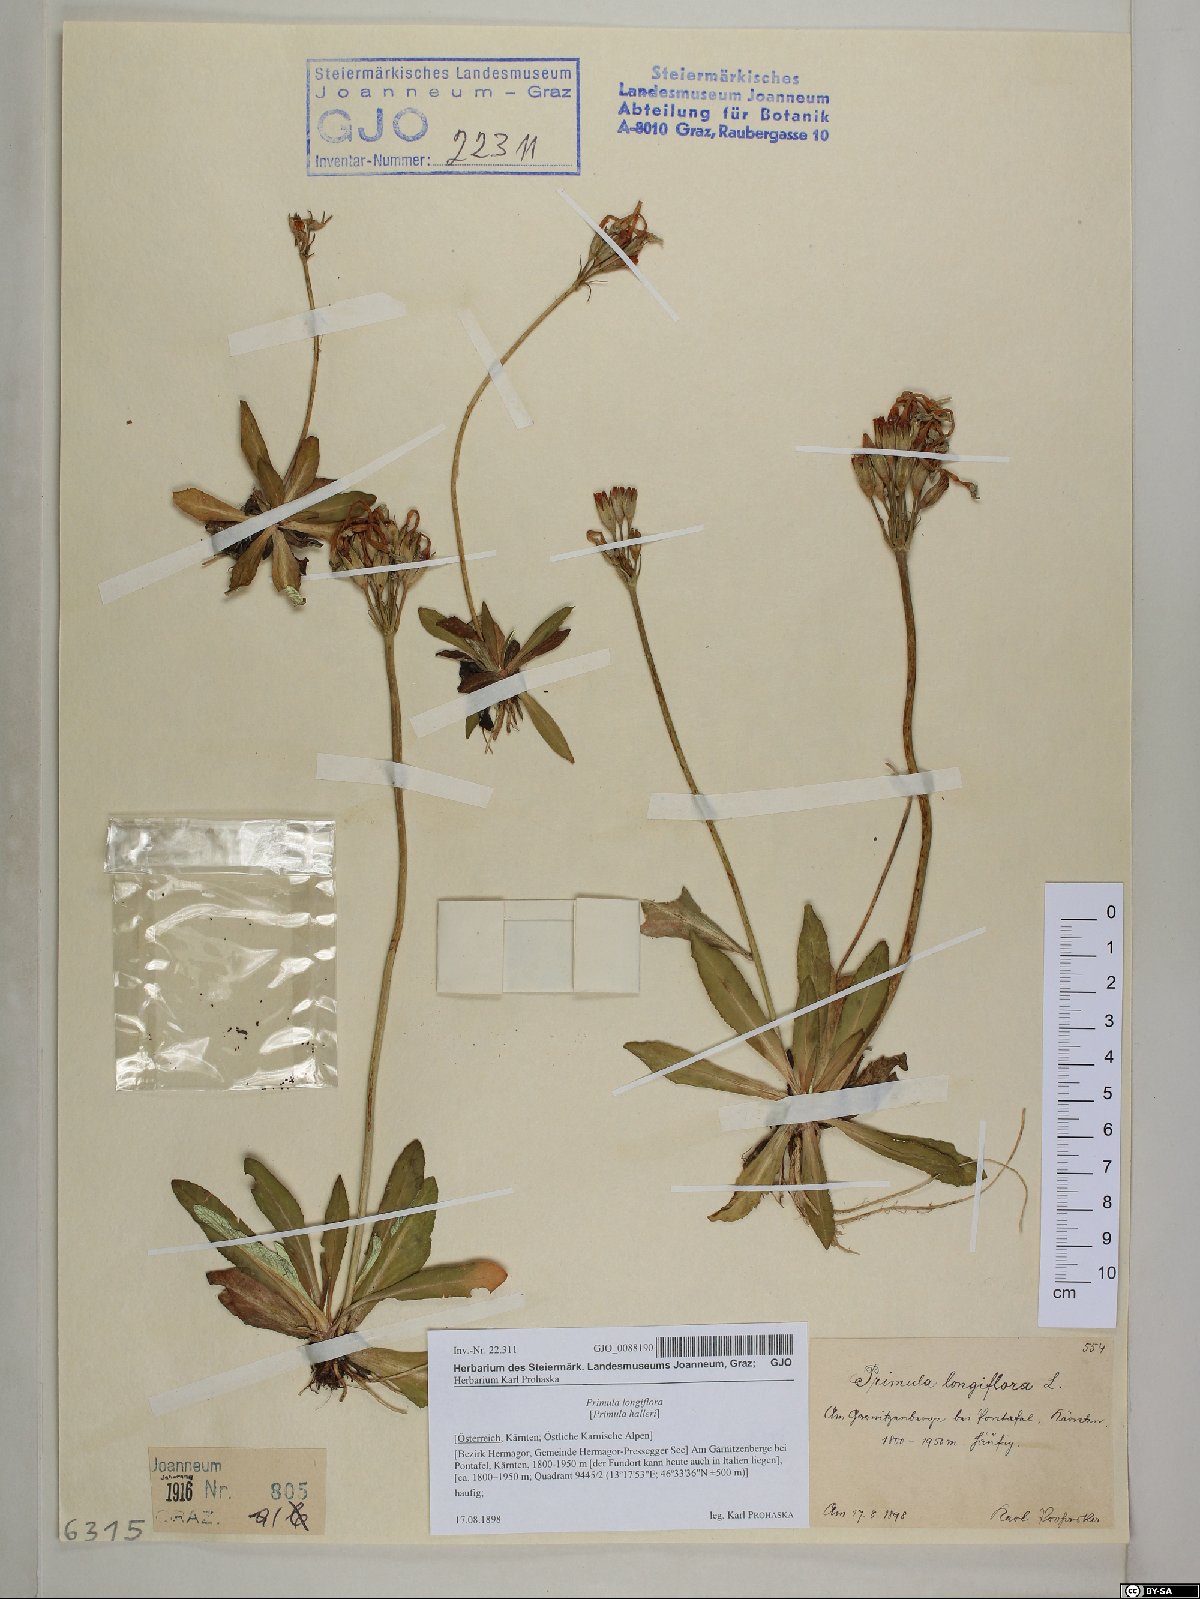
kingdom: Plantae
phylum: Tracheophyta
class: Magnoliopsida
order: Ericales
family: Primulaceae
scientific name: Primulaceae
